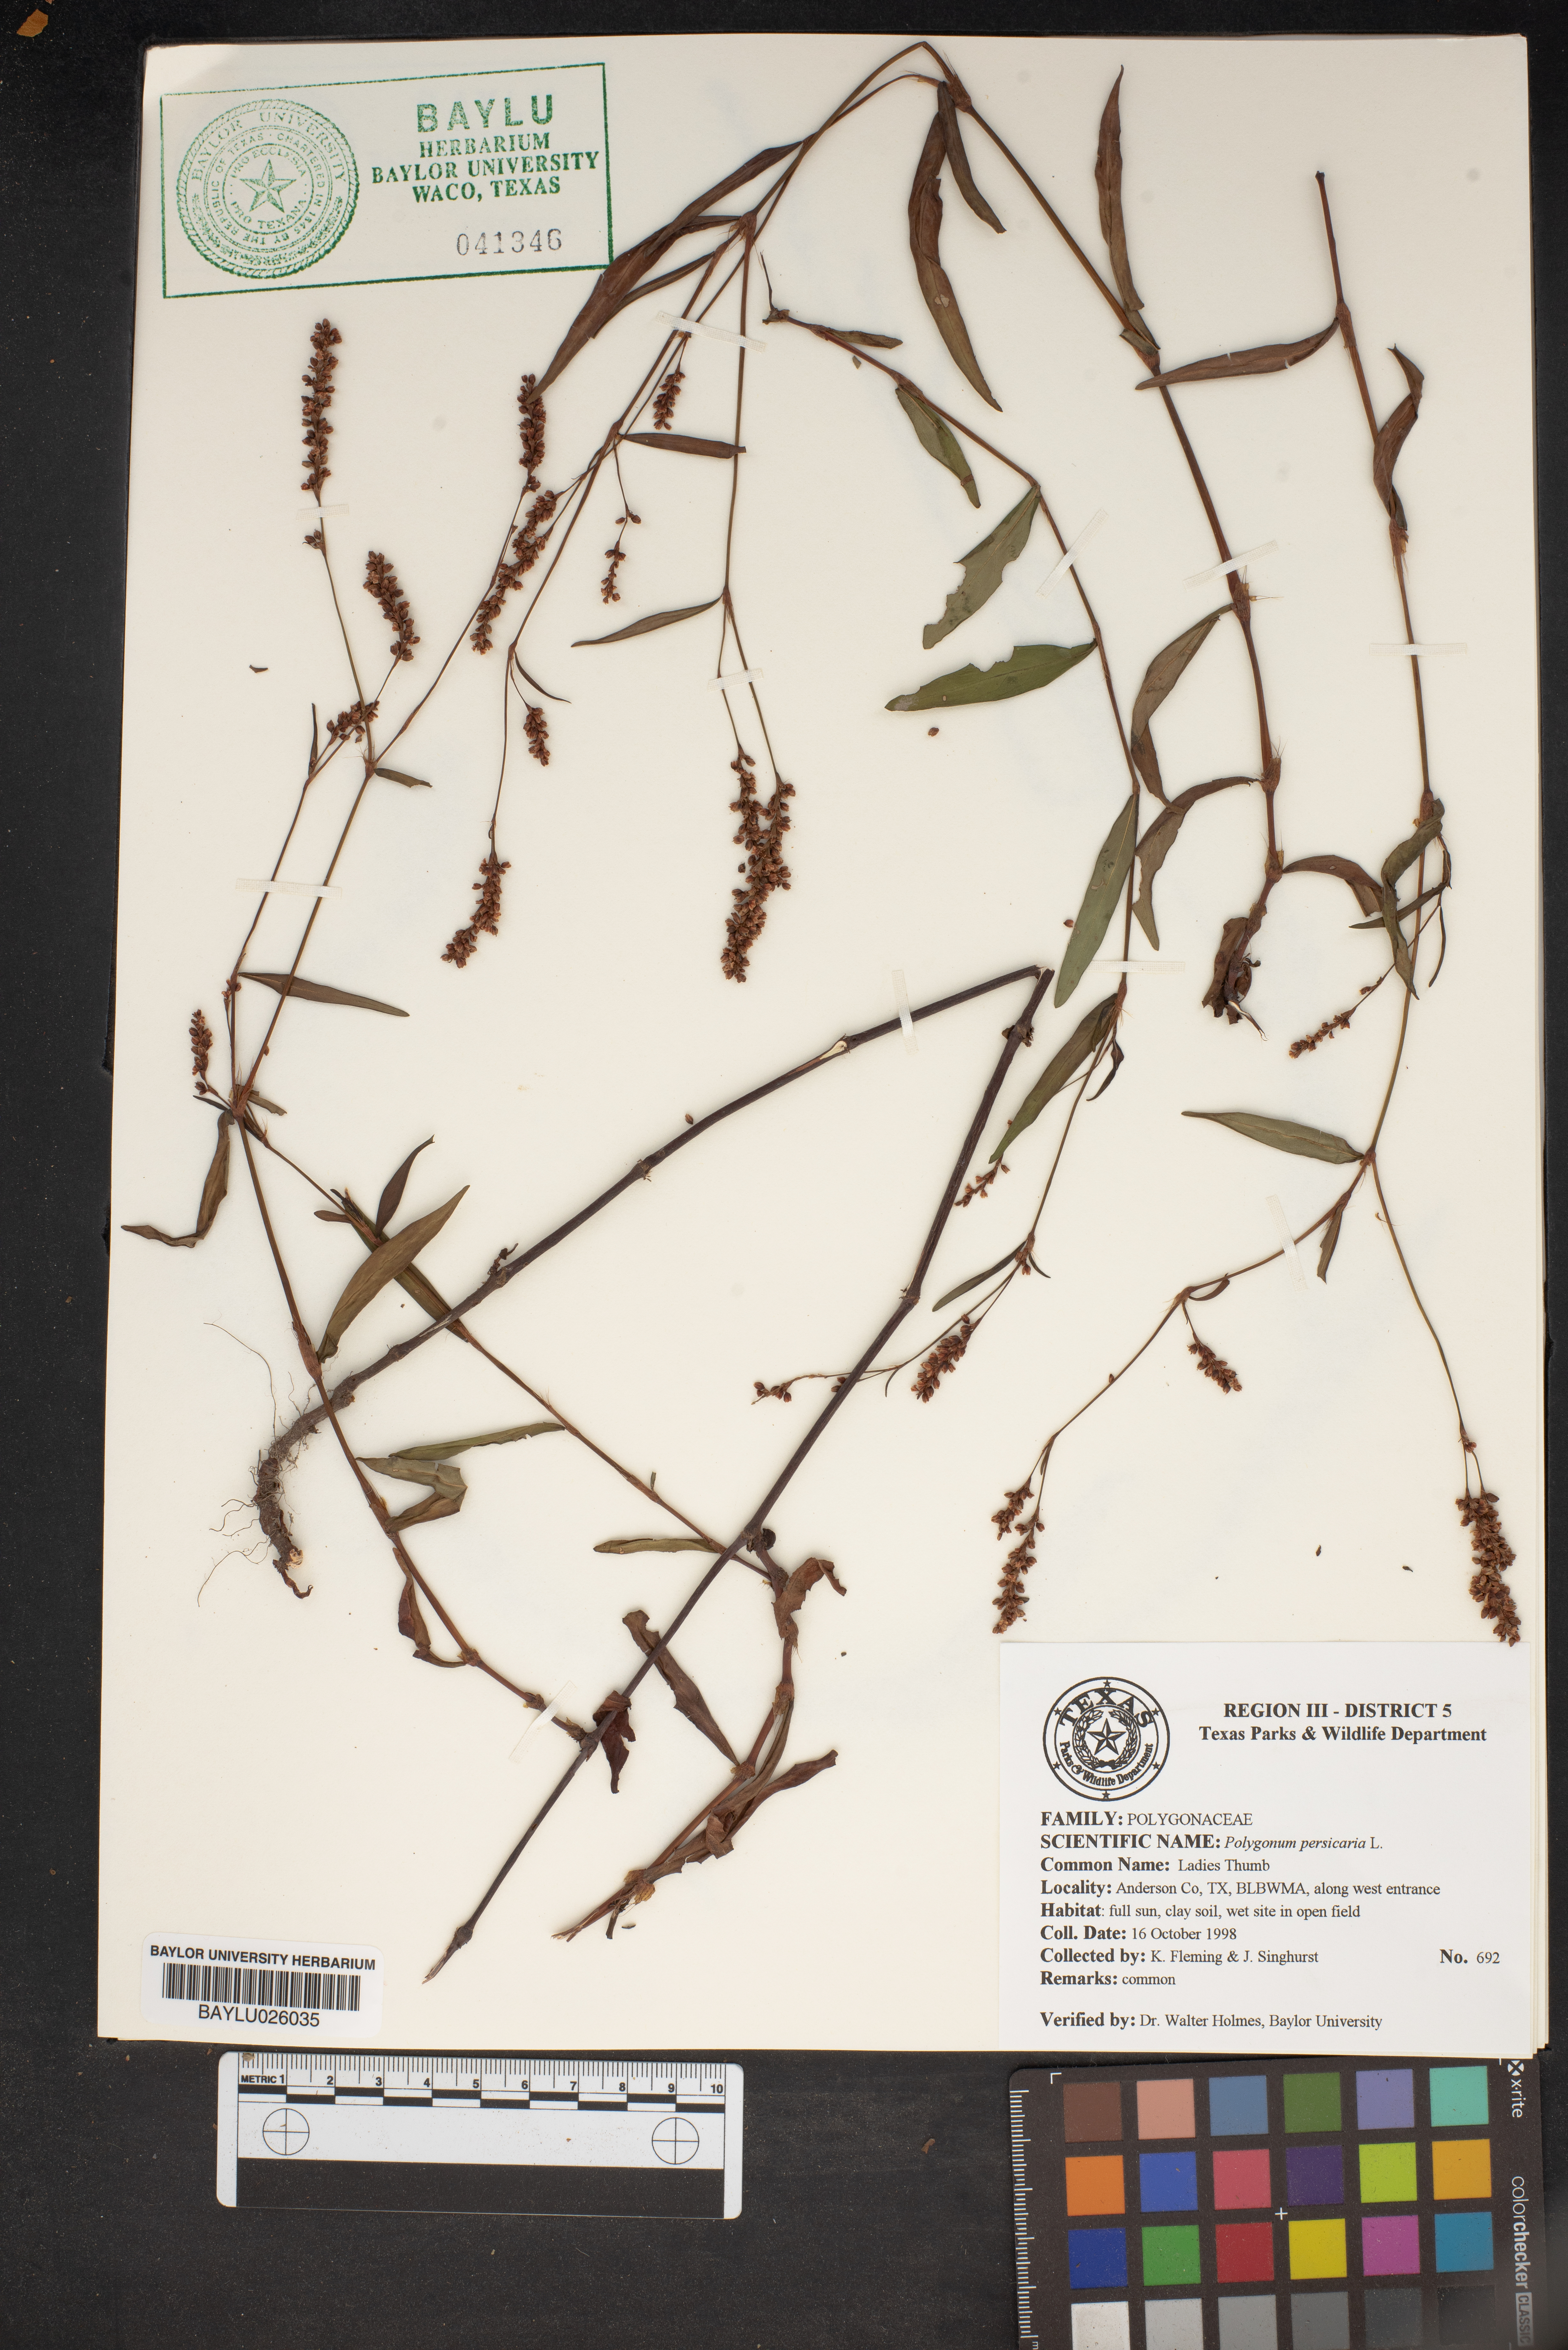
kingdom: Plantae
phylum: Tracheophyta
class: Magnoliopsida
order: Caryophyllales
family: Polygonaceae
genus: Persicaria
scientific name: Persicaria maculosa
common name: Redshank
